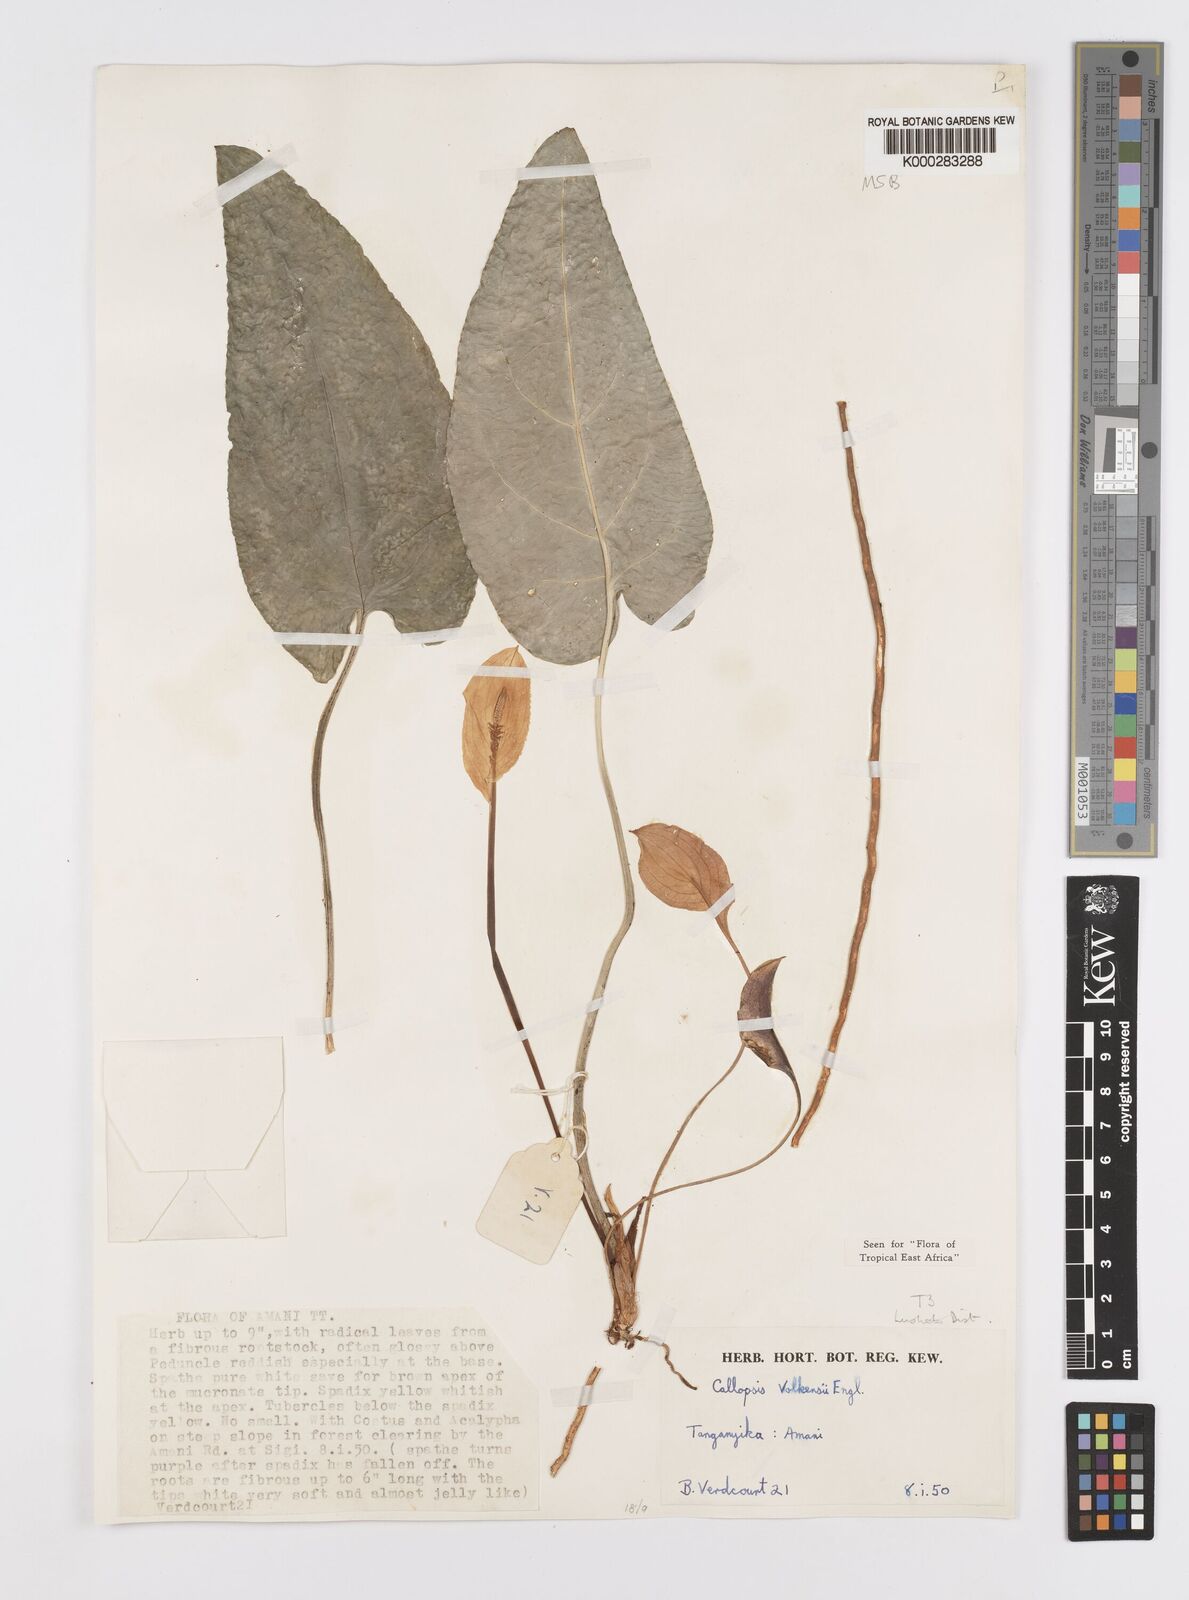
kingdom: Plantae
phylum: Tracheophyta
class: Liliopsida
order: Alismatales
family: Araceae
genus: Callopsis
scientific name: Callopsis volkensii
